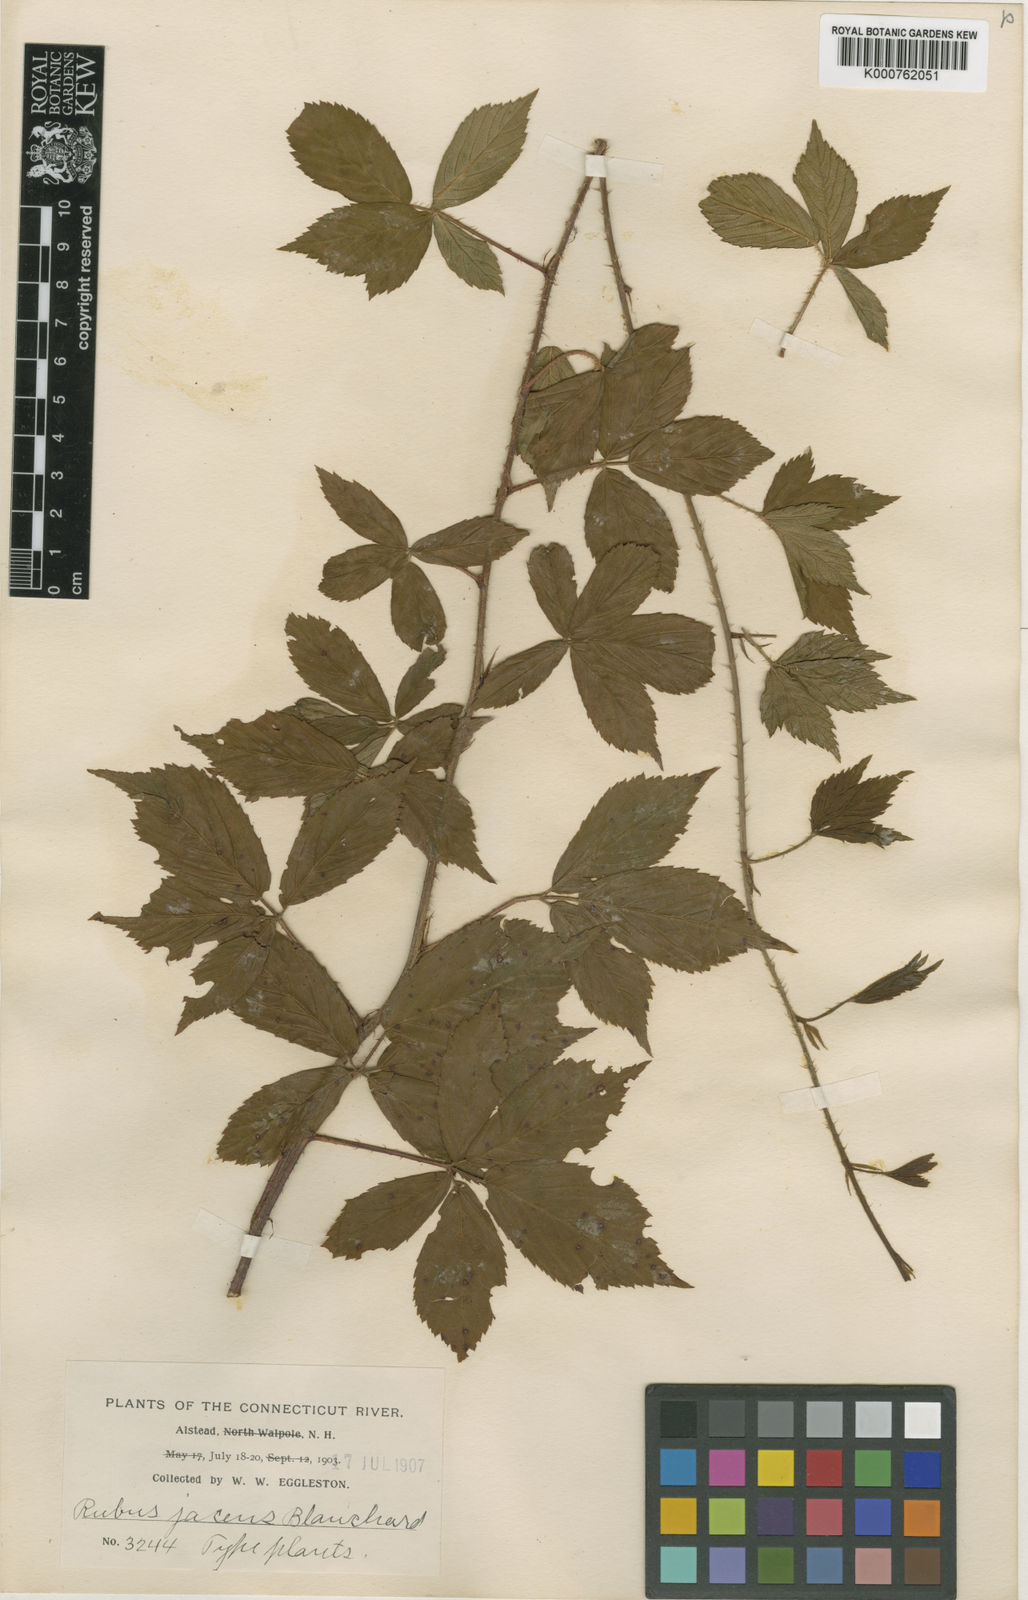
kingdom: Plantae
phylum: Tracheophyta
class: Magnoliopsida
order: Rosales
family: Rosaceae
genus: Rubus
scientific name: Rubus trifrons
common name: Threeleaflet dewberry
